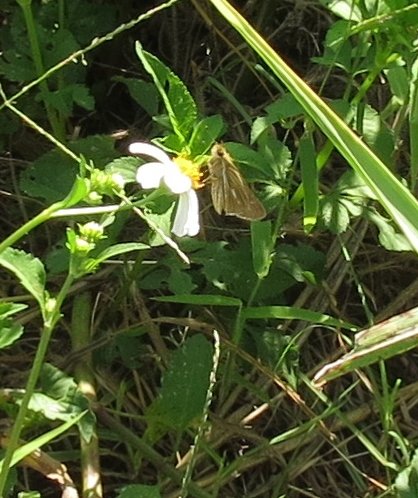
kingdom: Animalia
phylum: Arthropoda
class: Insecta
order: Lepidoptera
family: Hesperiidae
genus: Panoquina
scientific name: Panoquina panoquin
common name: Salt Marsh Skipper
